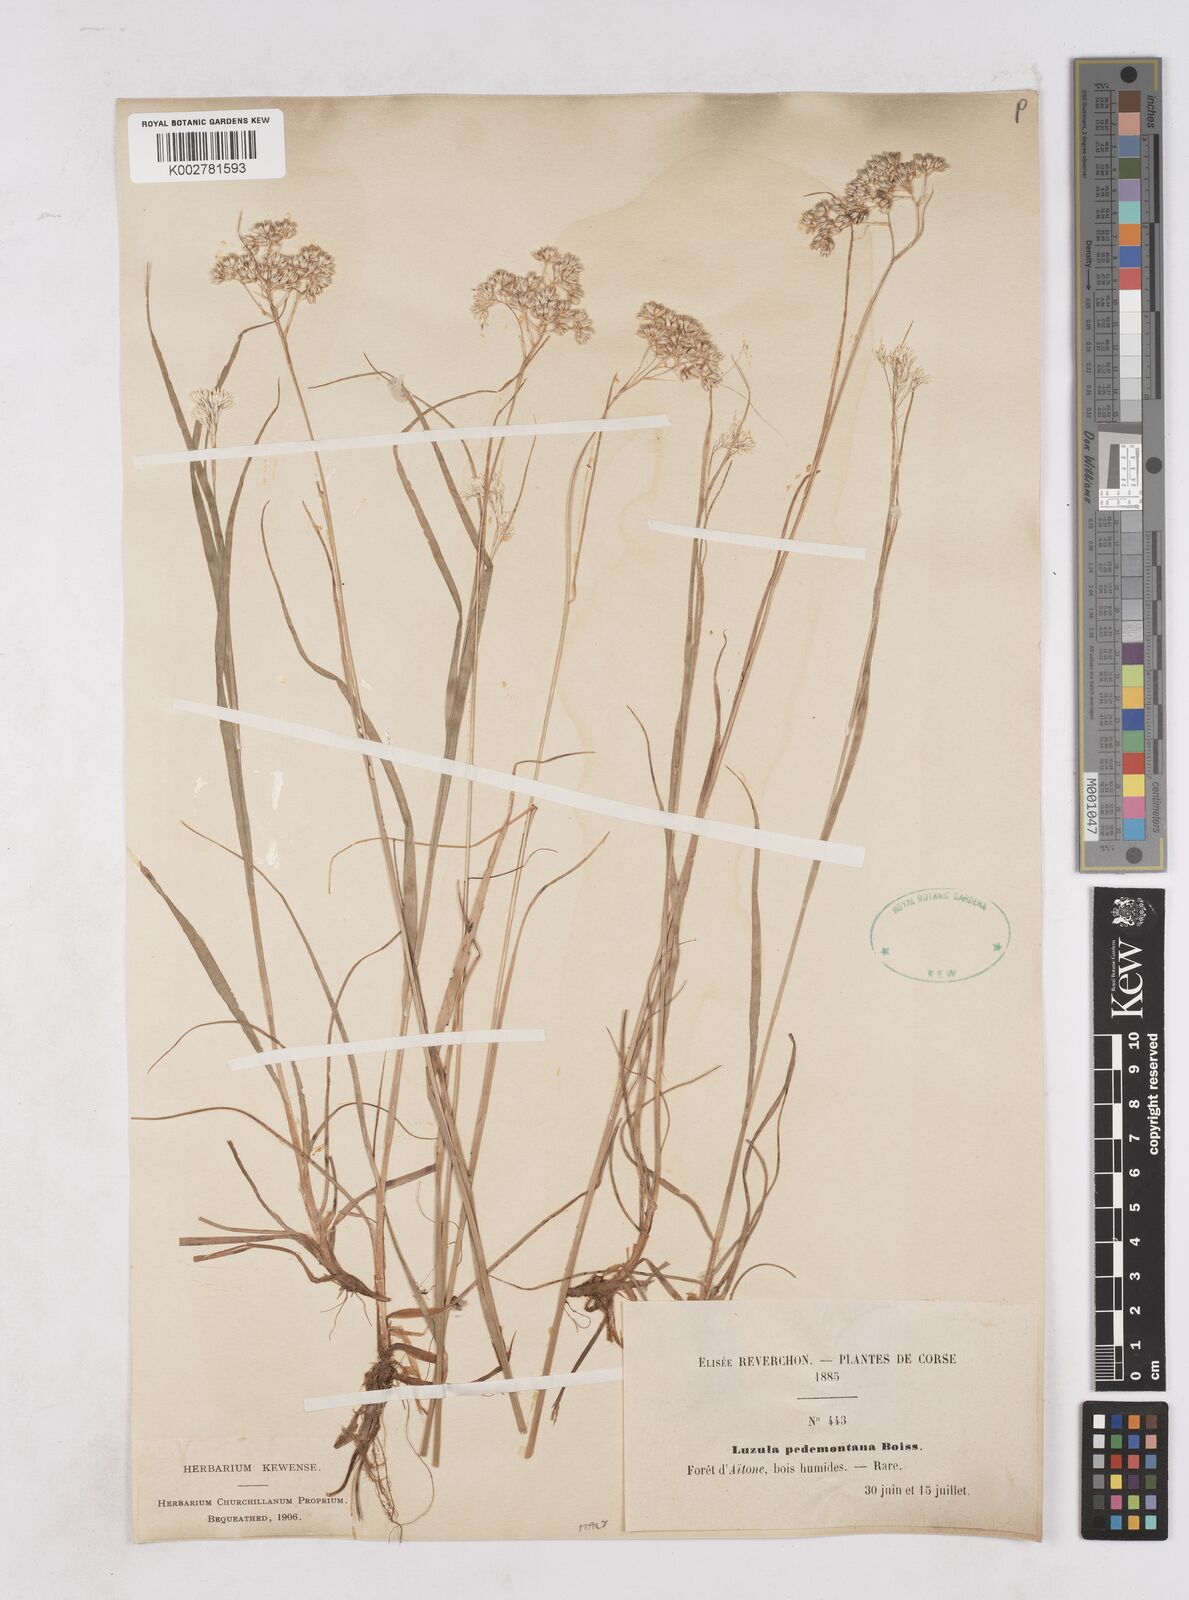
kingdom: Plantae
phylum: Tracheophyta
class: Liliopsida
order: Poales
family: Juncaceae
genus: Luzula
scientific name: Luzula pedemontana
